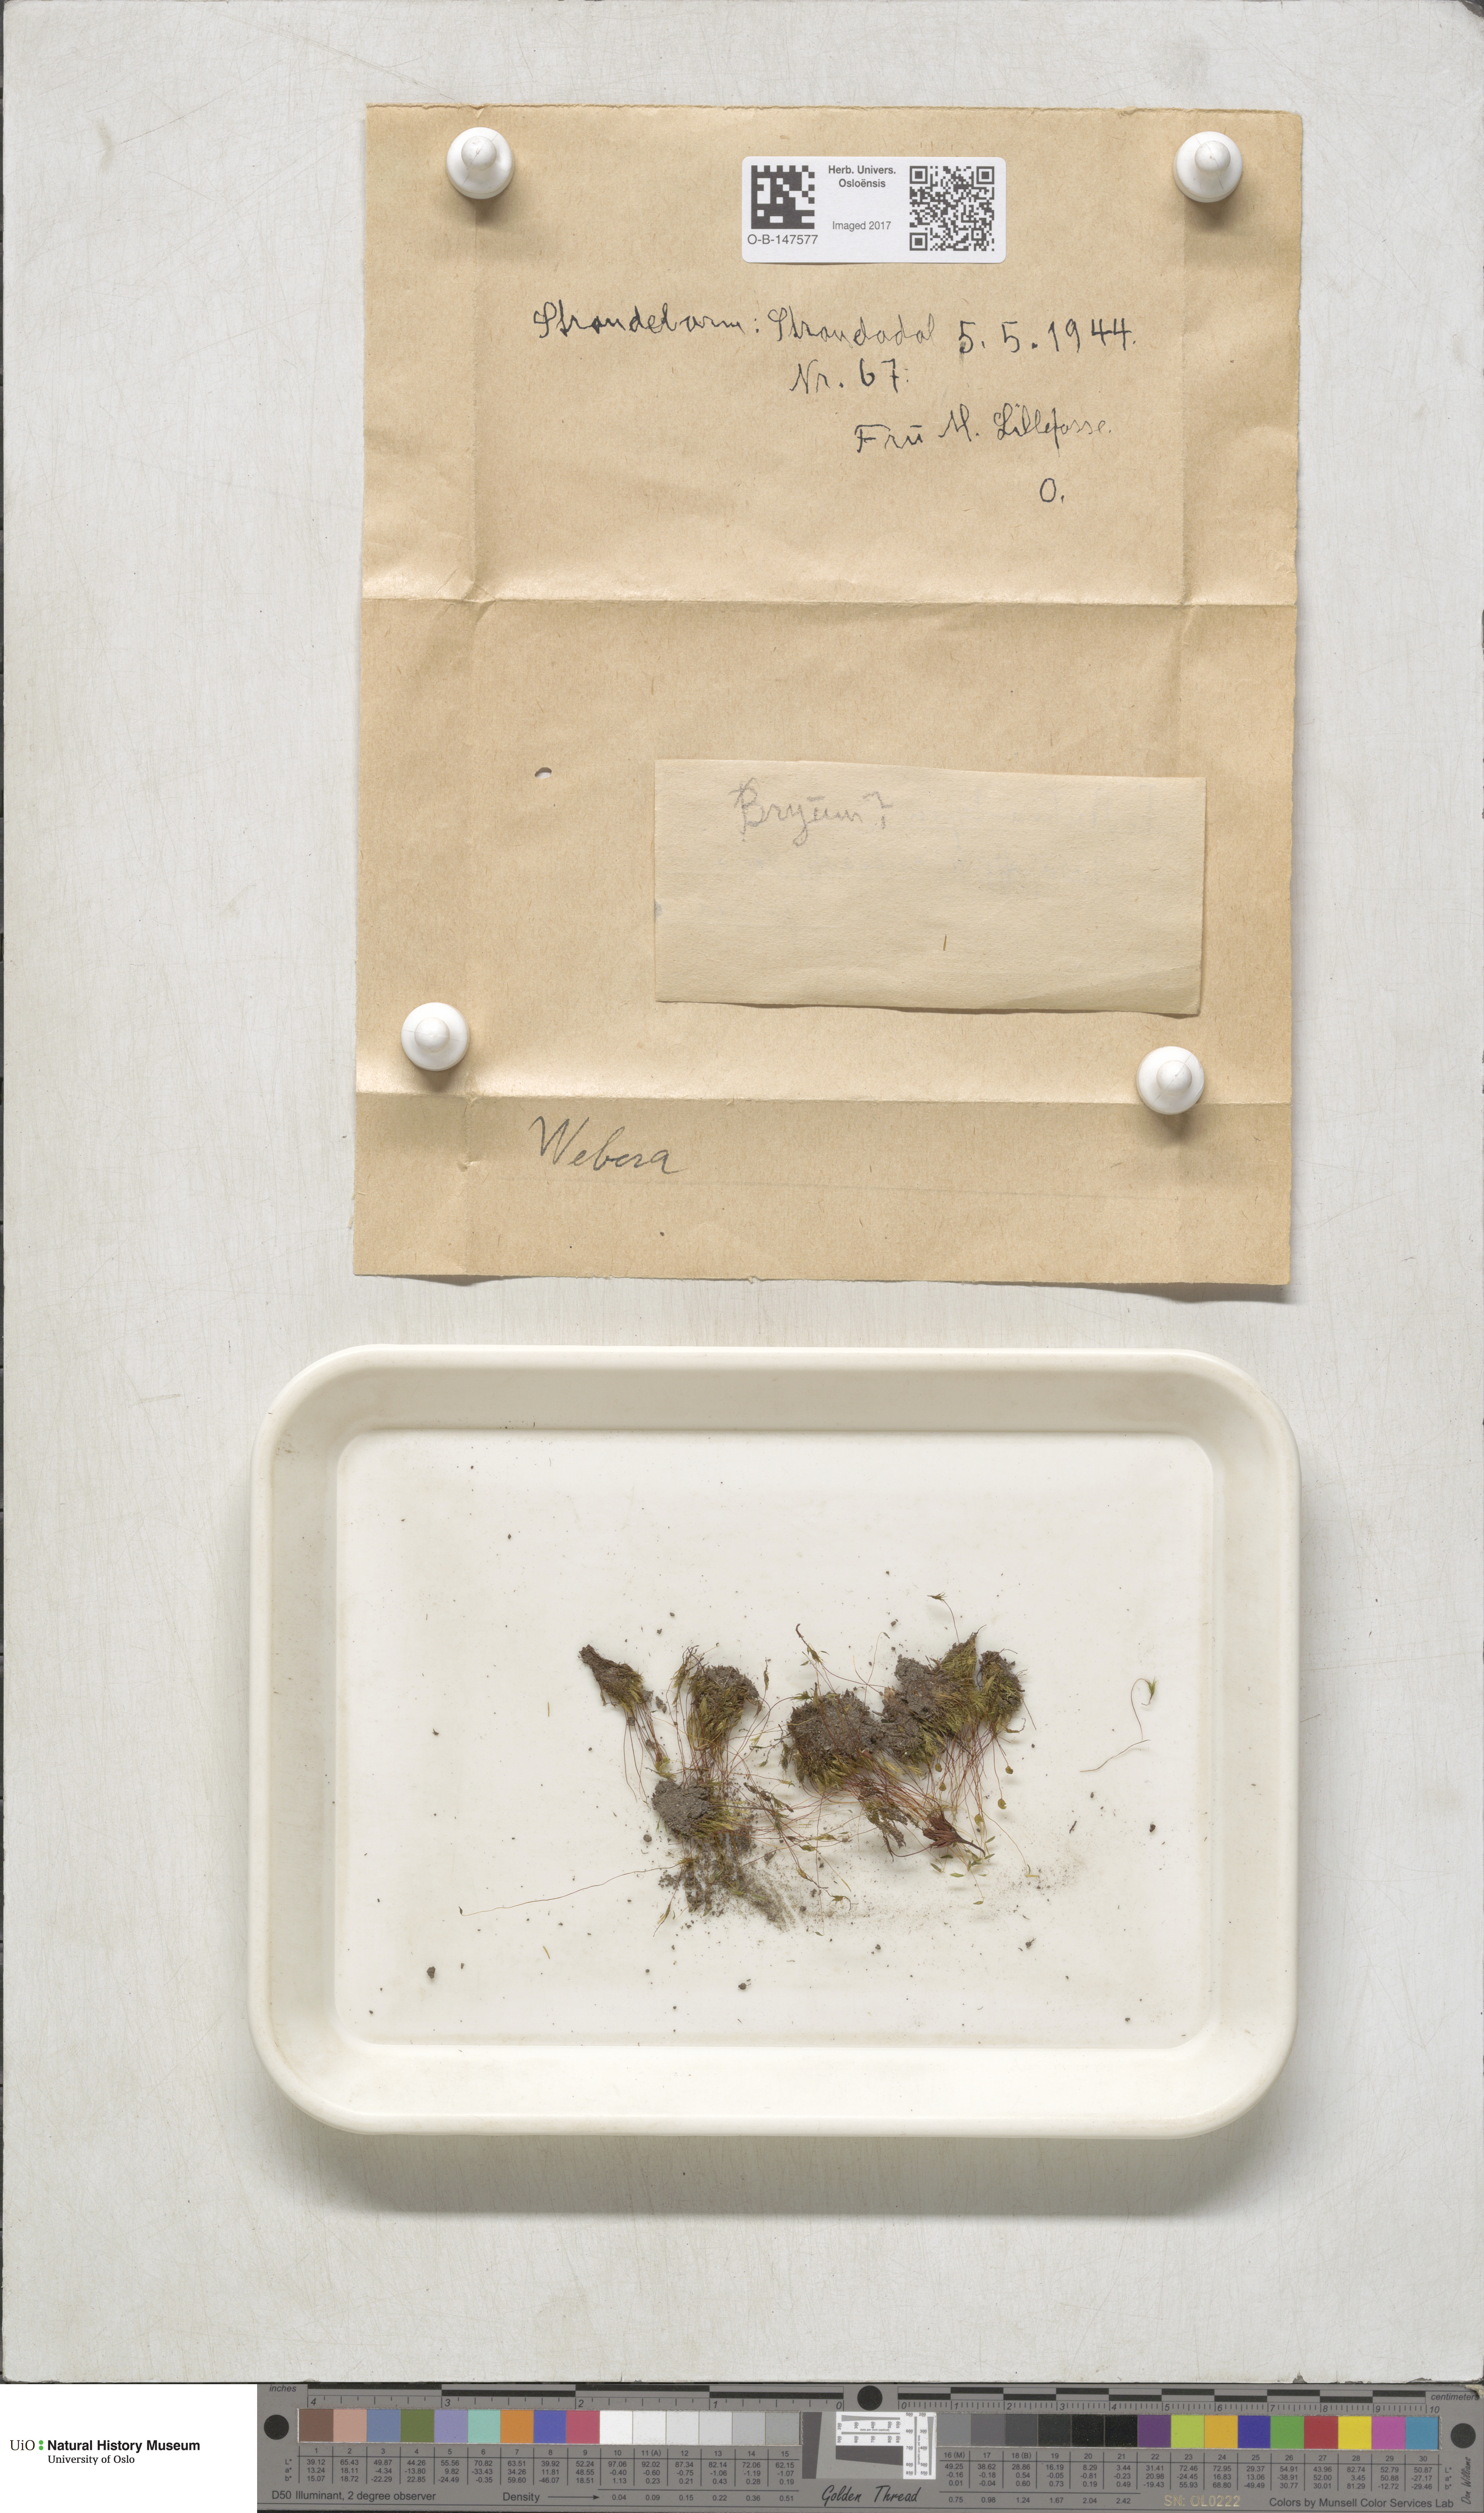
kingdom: Plantae
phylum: Bryophyta
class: Bryopsida
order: Bryales
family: Mniaceae
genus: Pohlia
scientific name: Pohlia
